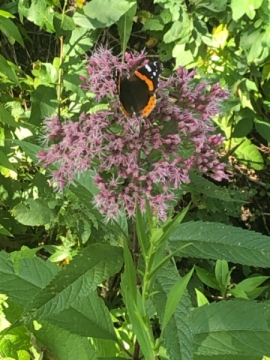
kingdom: Animalia
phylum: Arthropoda
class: Insecta
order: Lepidoptera
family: Nymphalidae
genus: Vanessa
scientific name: Vanessa atalanta
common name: Red Admiral
